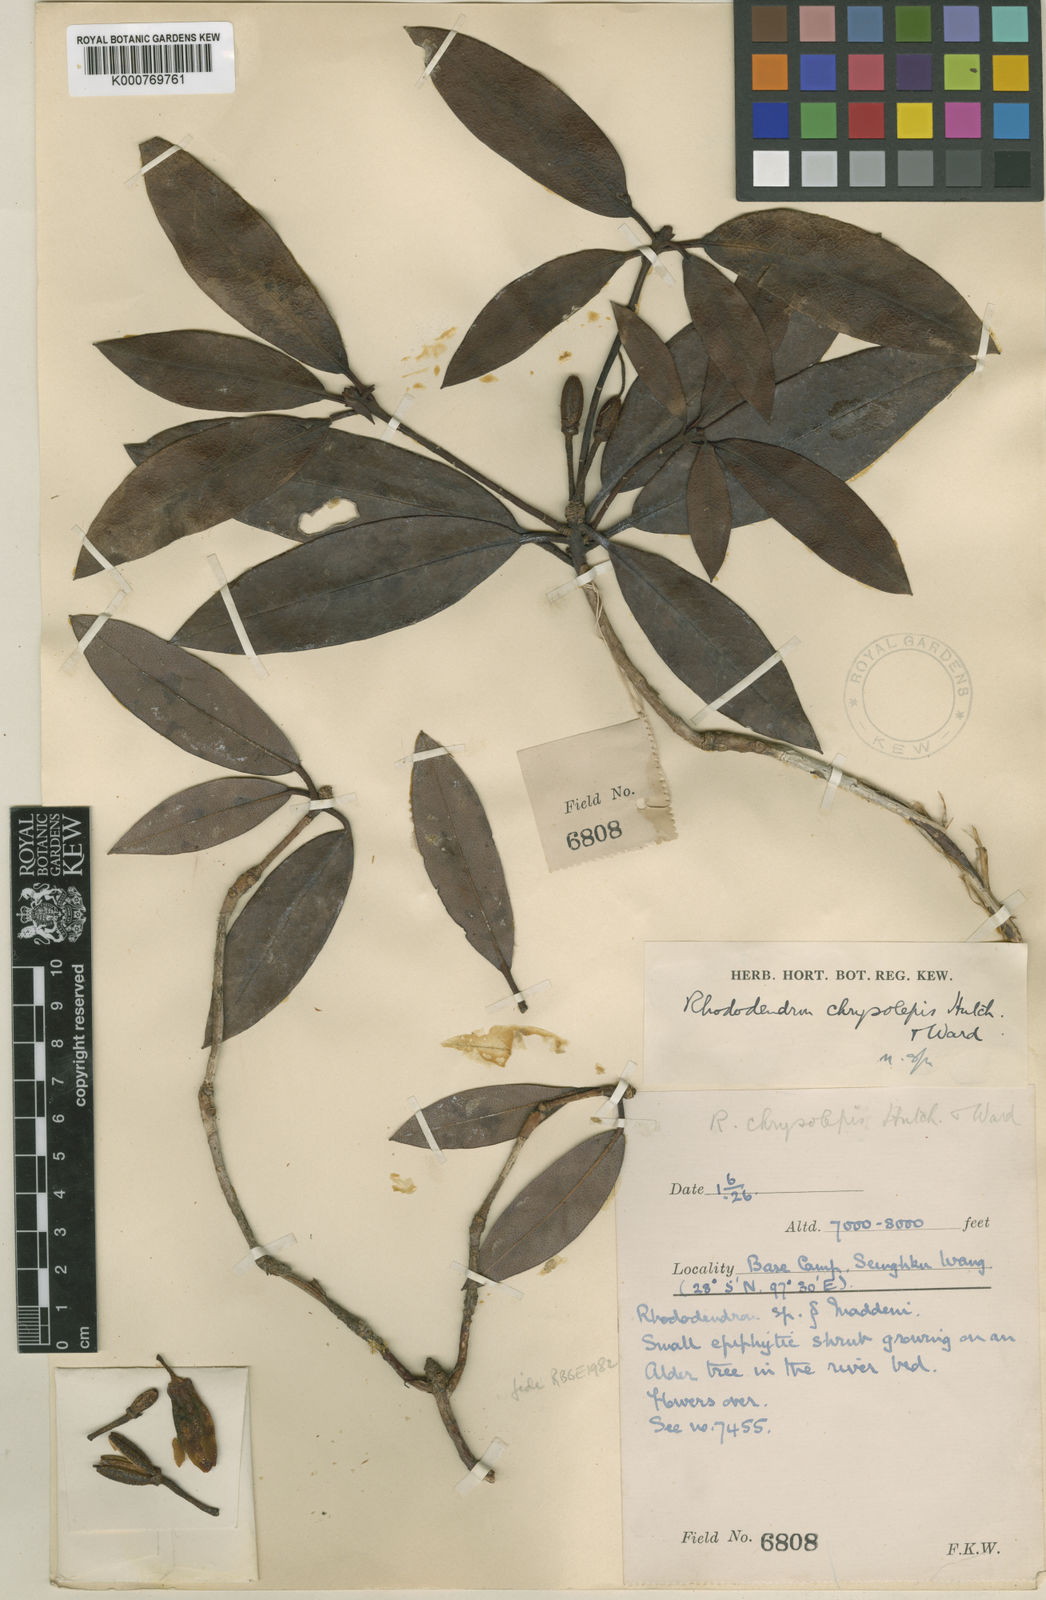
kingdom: Plantae
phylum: Tracheophyta
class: Magnoliopsida
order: Ericales
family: Ericaceae
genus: Rhododendron
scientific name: Rhododendron chrysolepis
